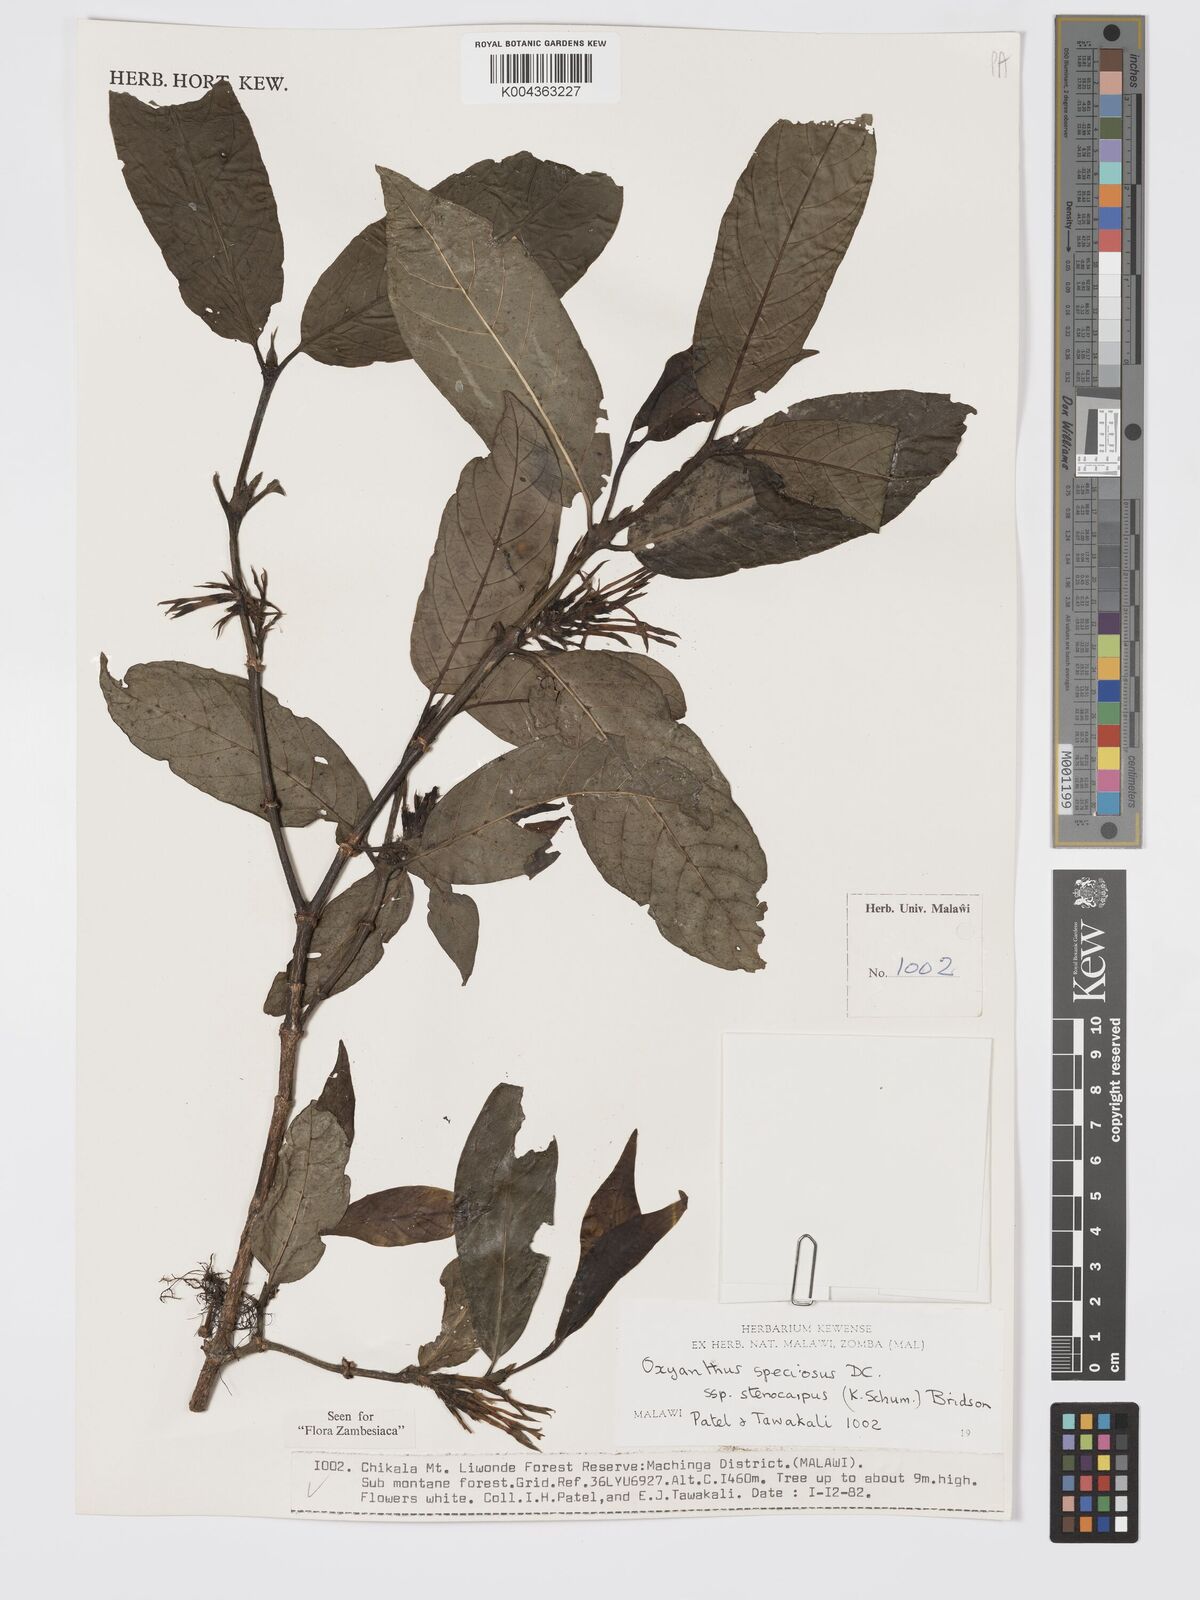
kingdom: Plantae
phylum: Tracheophyta
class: Magnoliopsida
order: Gentianales
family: Rubiaceae
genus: Oxyanthus
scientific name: Oxyanthus speciosus
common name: Whipstick loquat
